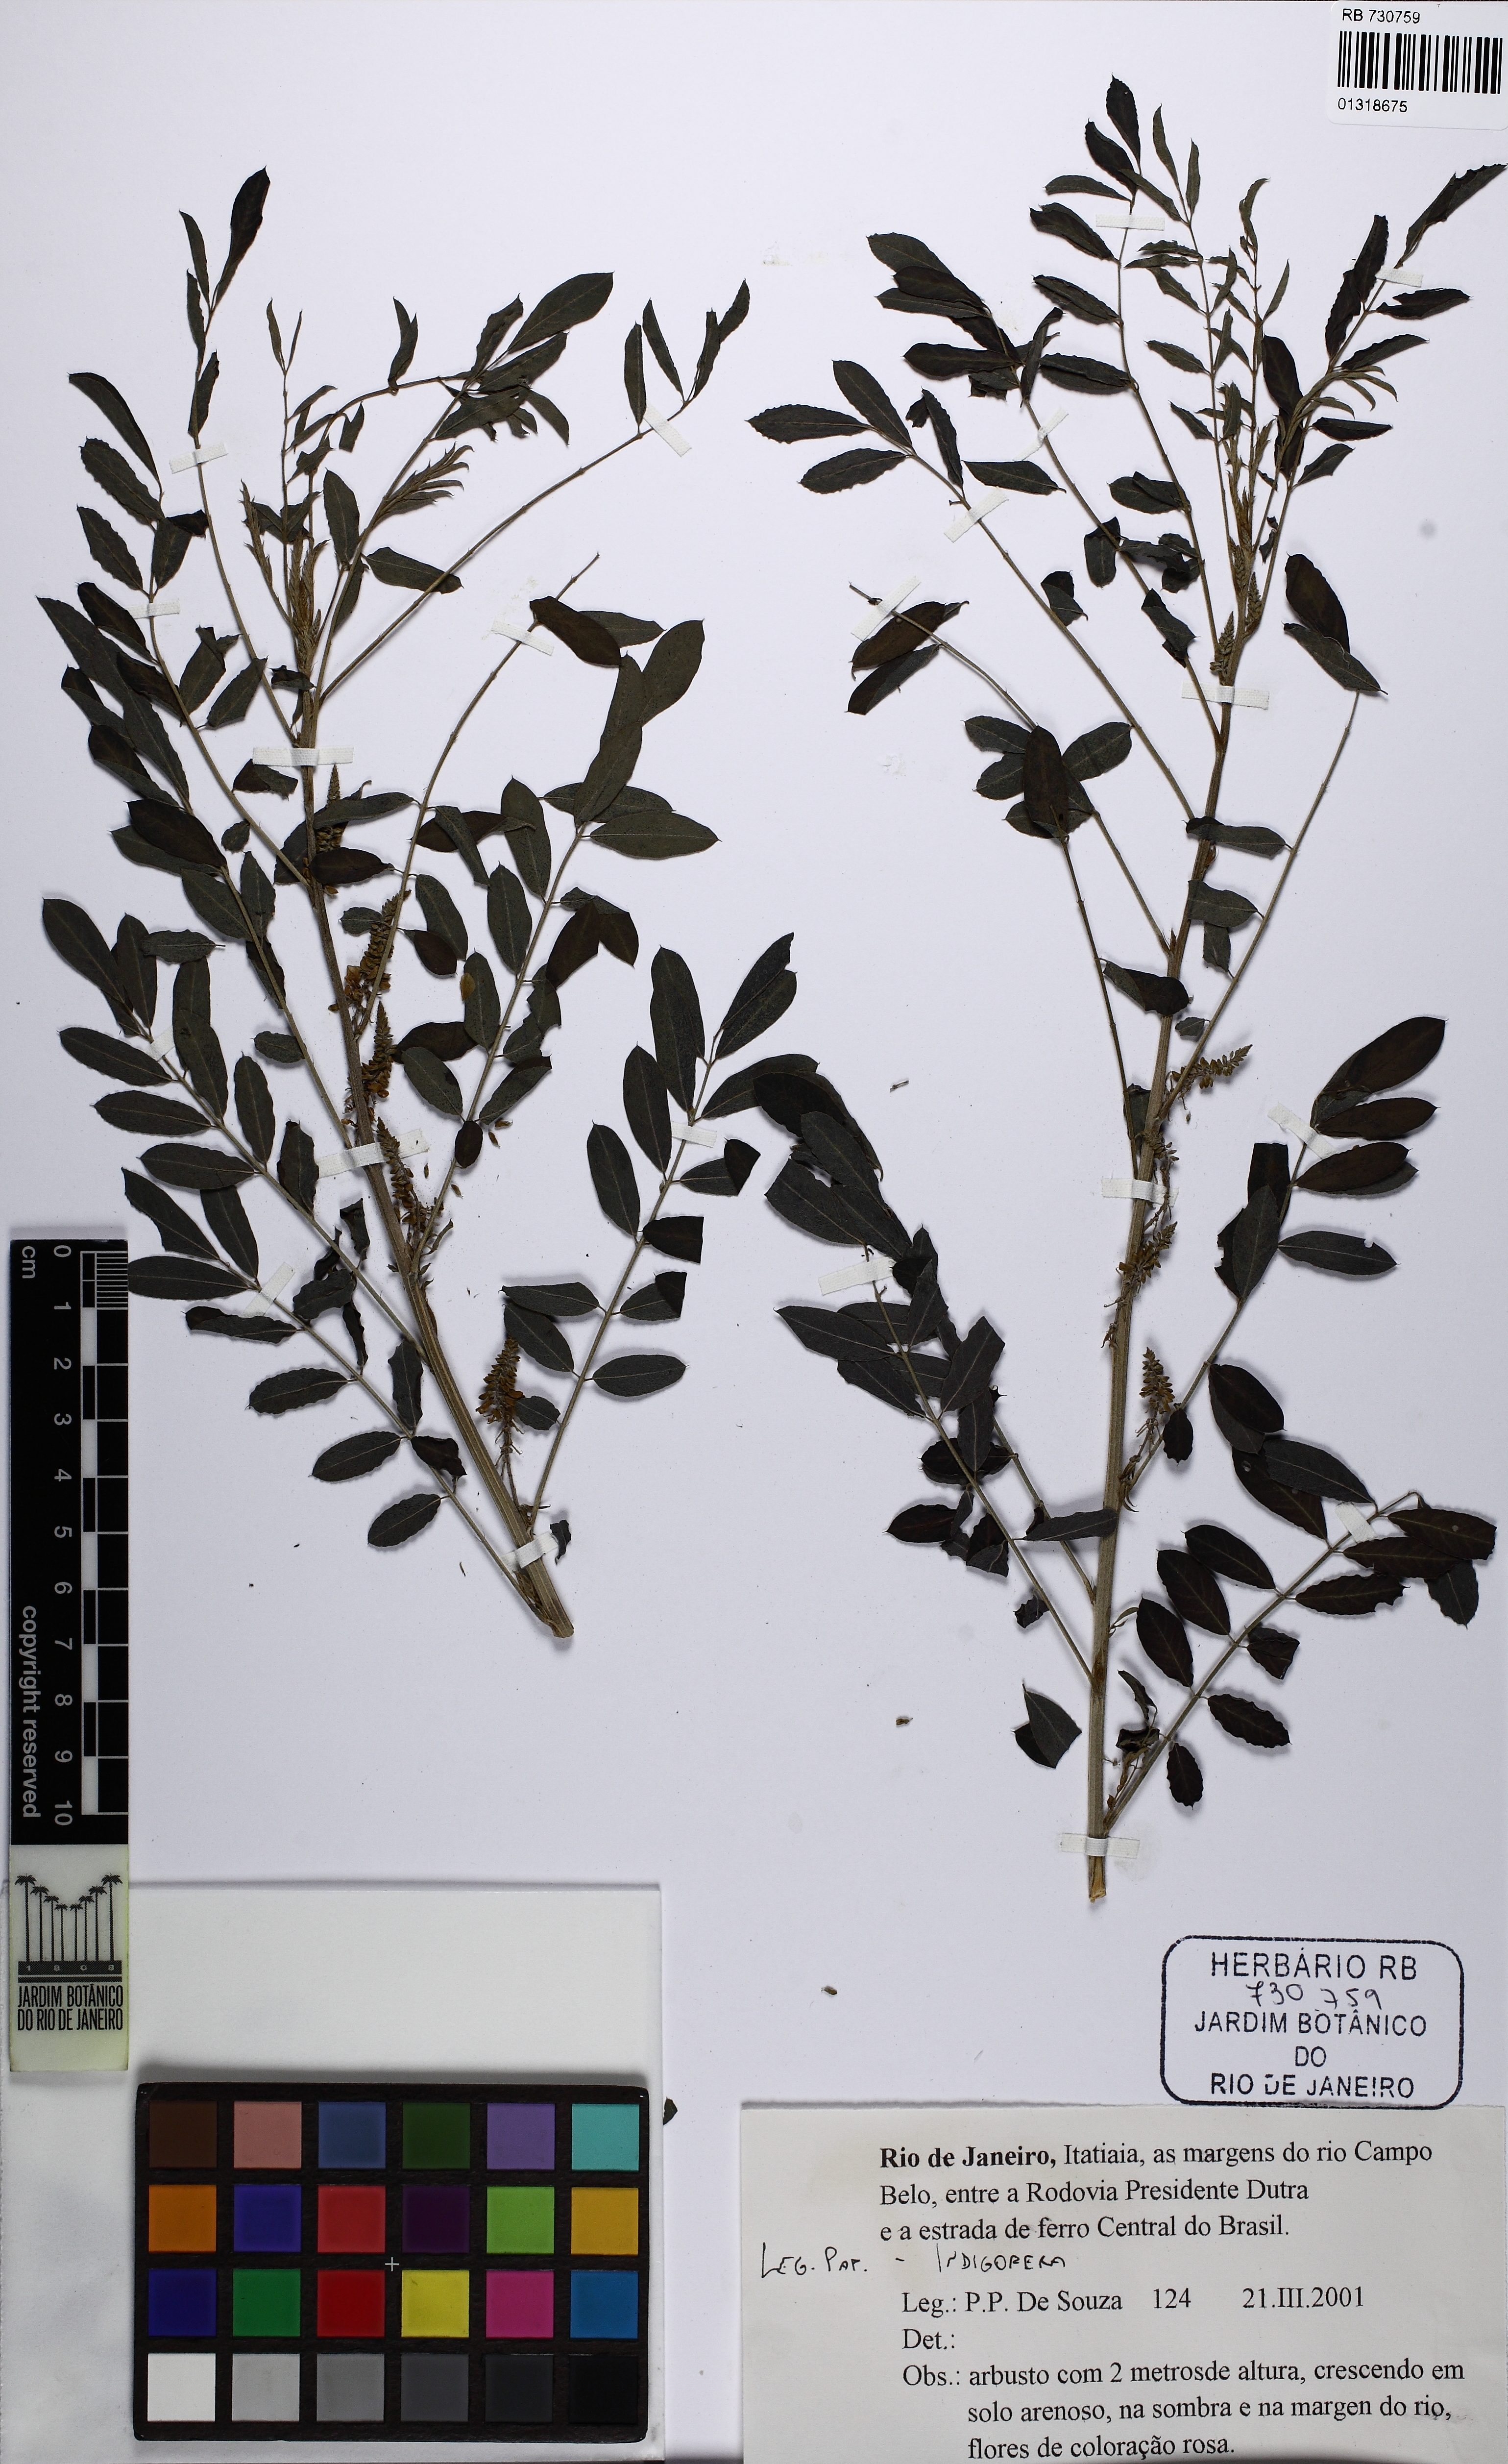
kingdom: Plantae
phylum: Tracheophyta
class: Magnoliopsida
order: Fabales
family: Fabaceae
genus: Indigofera
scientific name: Indigofera
